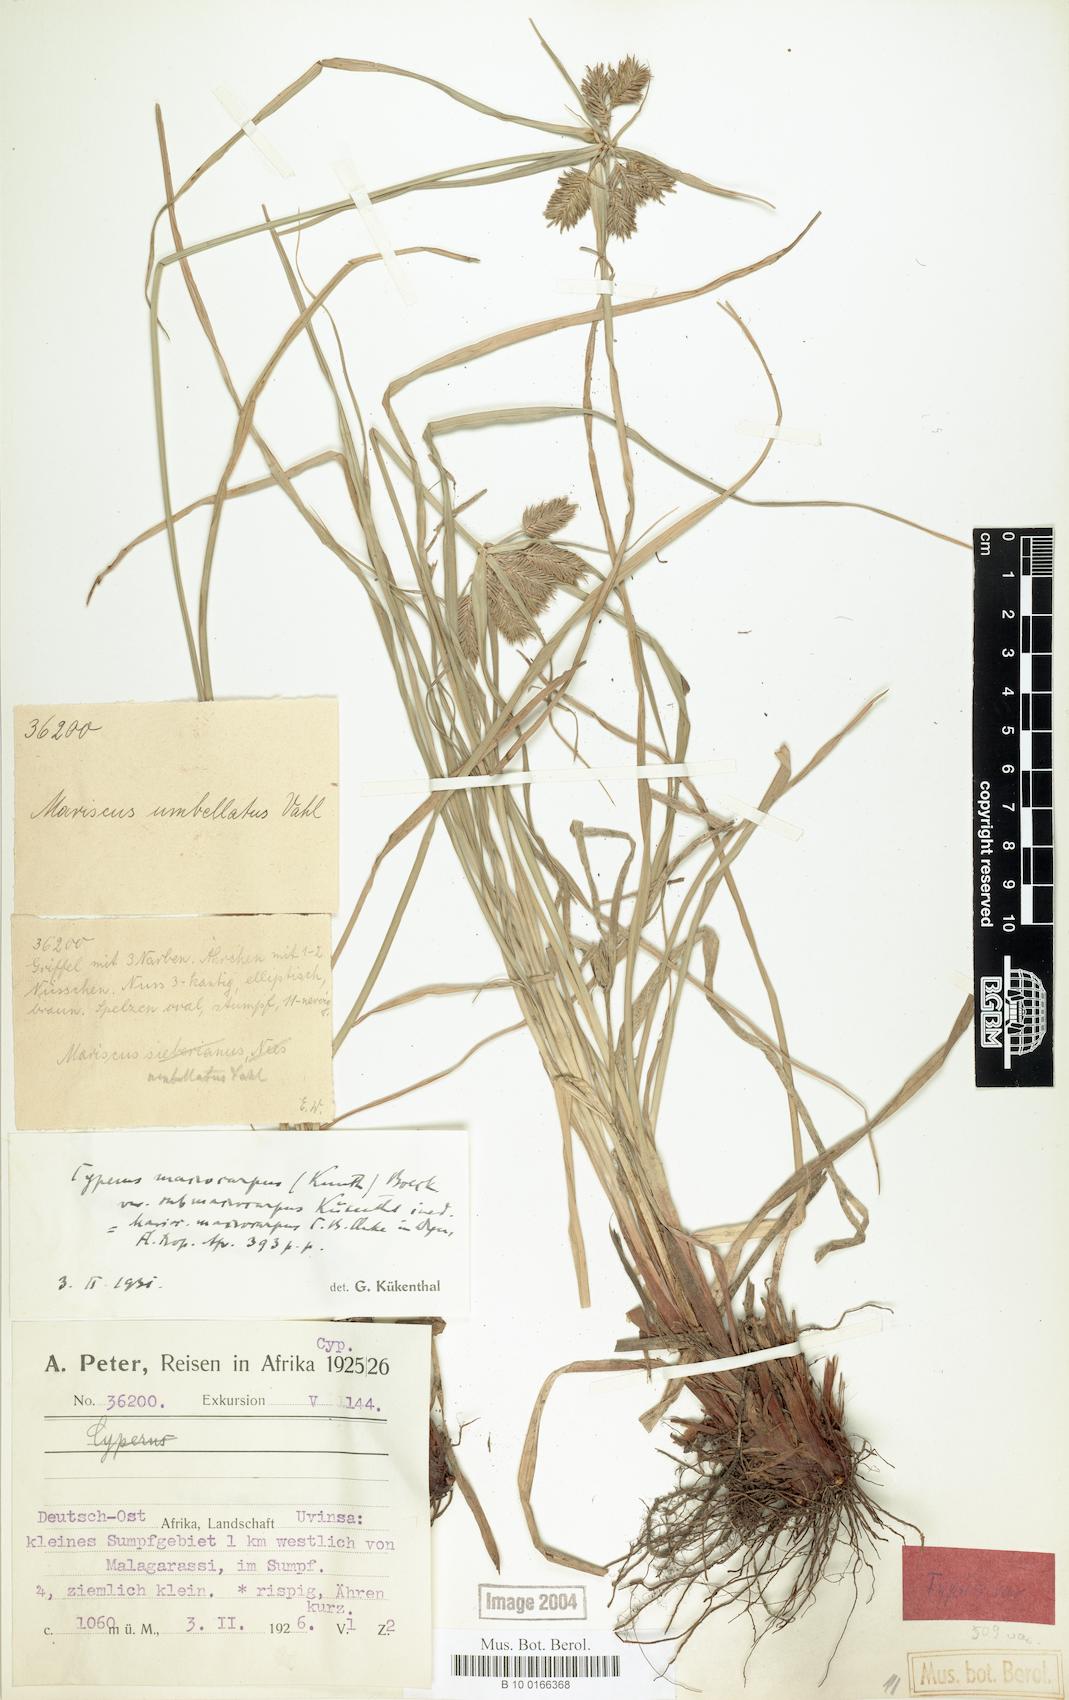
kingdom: Plantae
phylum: Tracheophyta
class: Liliopsida
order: Poales
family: Cyperaceae
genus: Cyperus
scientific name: Cyperus cyperoides
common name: Pacific island flat sedge
